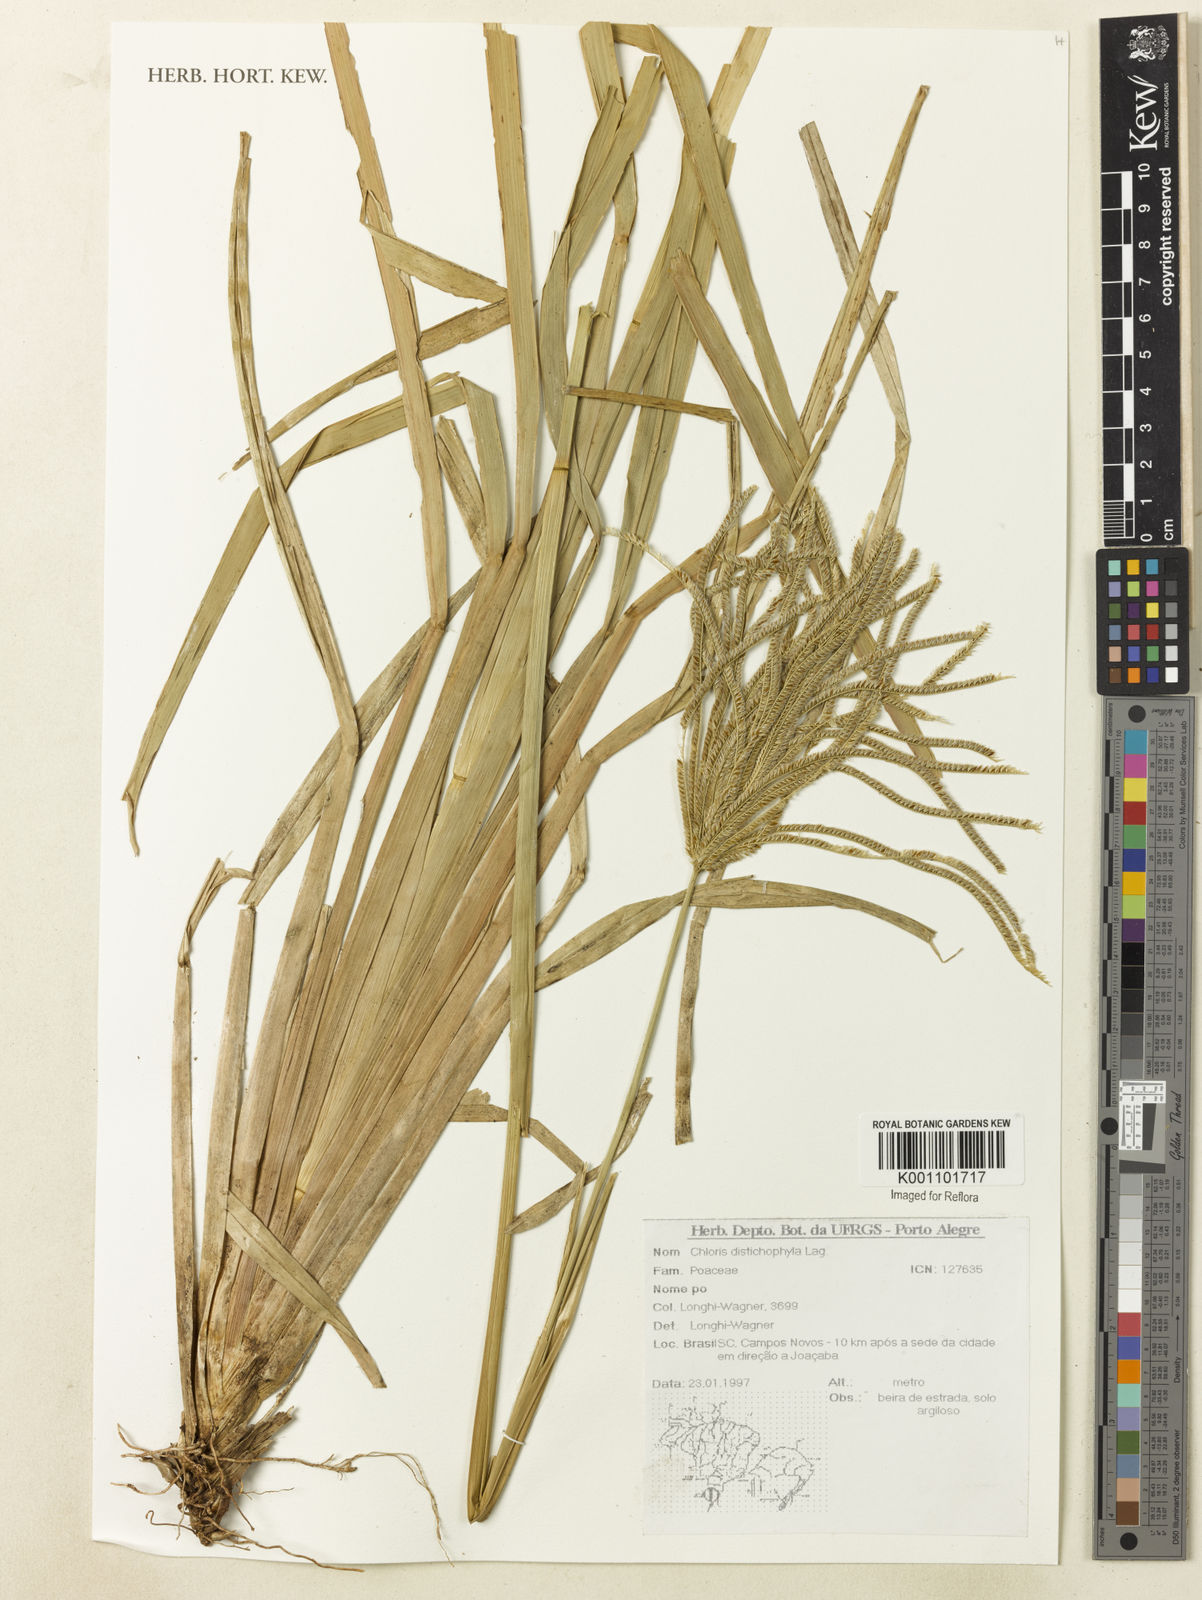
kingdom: Plantae
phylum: Tracheophyta
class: Liliopsida
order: Poales
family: Poaceae
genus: Eustachys
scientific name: Eustachys distichophylla
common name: Weeping fingergrass
